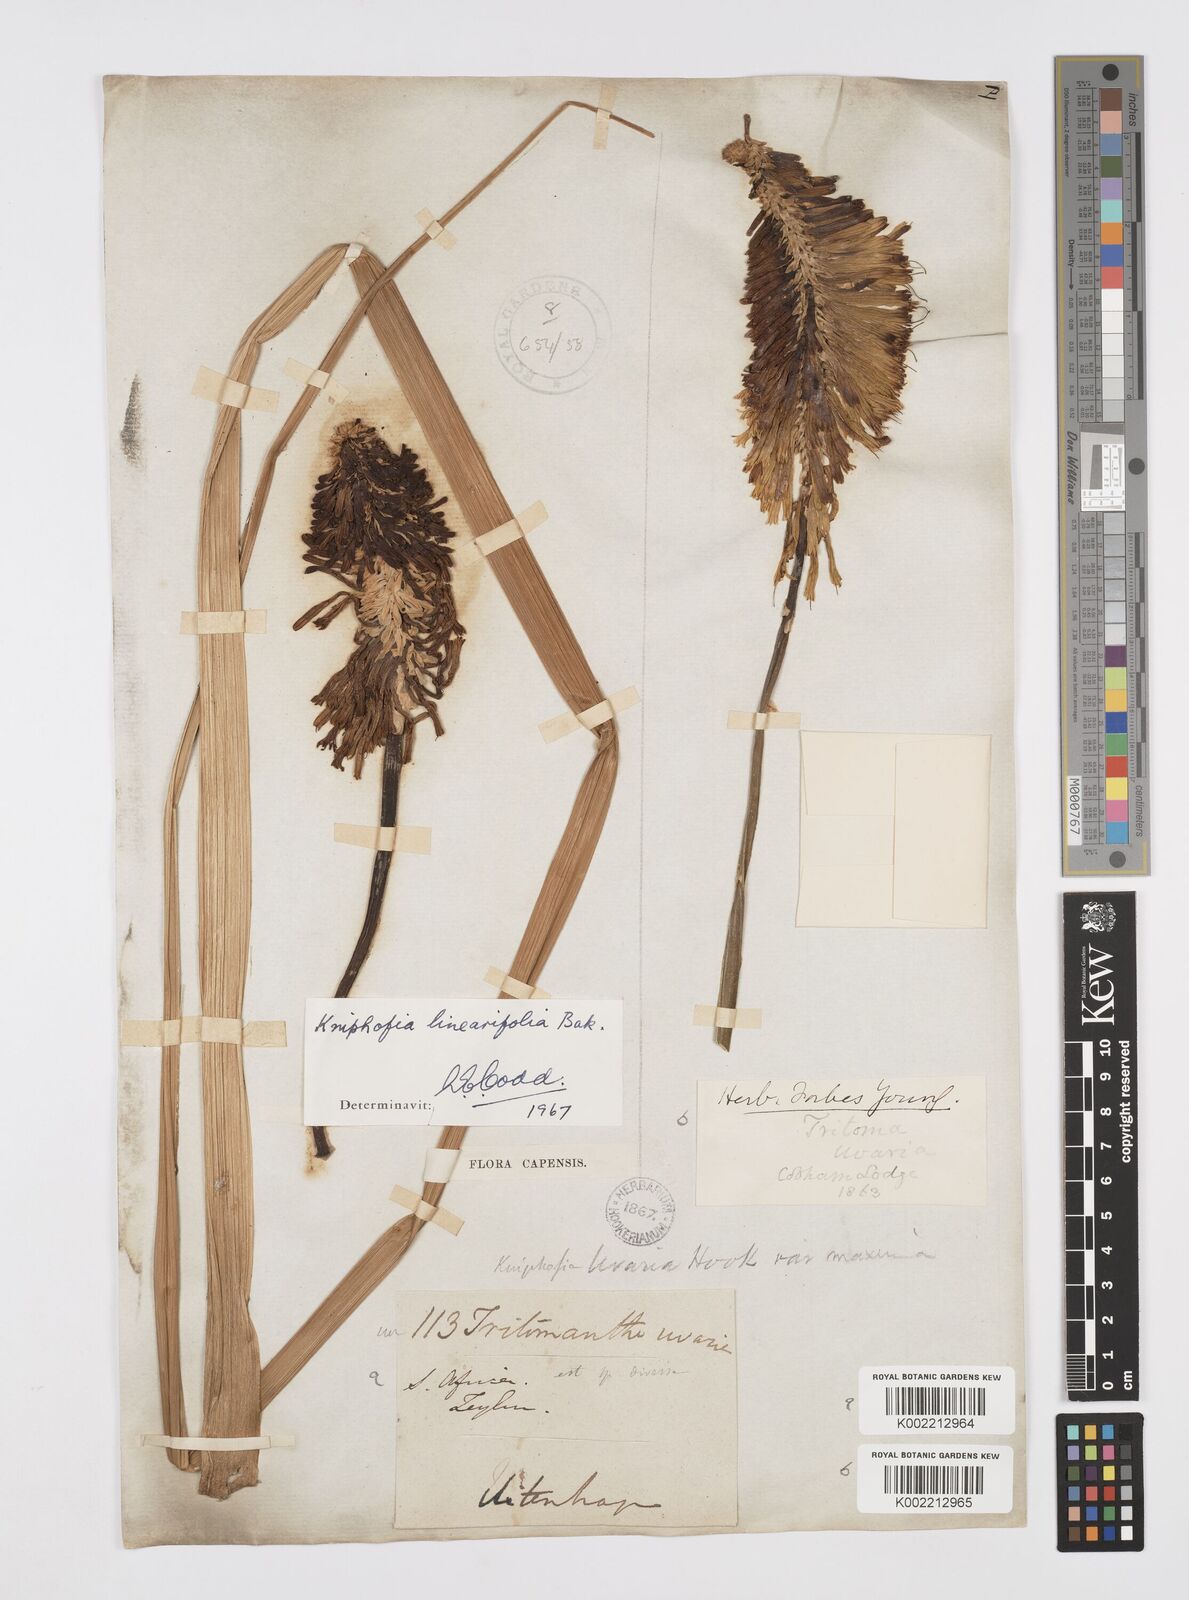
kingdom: Plantae
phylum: Tracheophyta
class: Liliopsida
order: Asparagales
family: Asphodelaceae
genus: Kniphofia
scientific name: Kniphofia linearifolia
